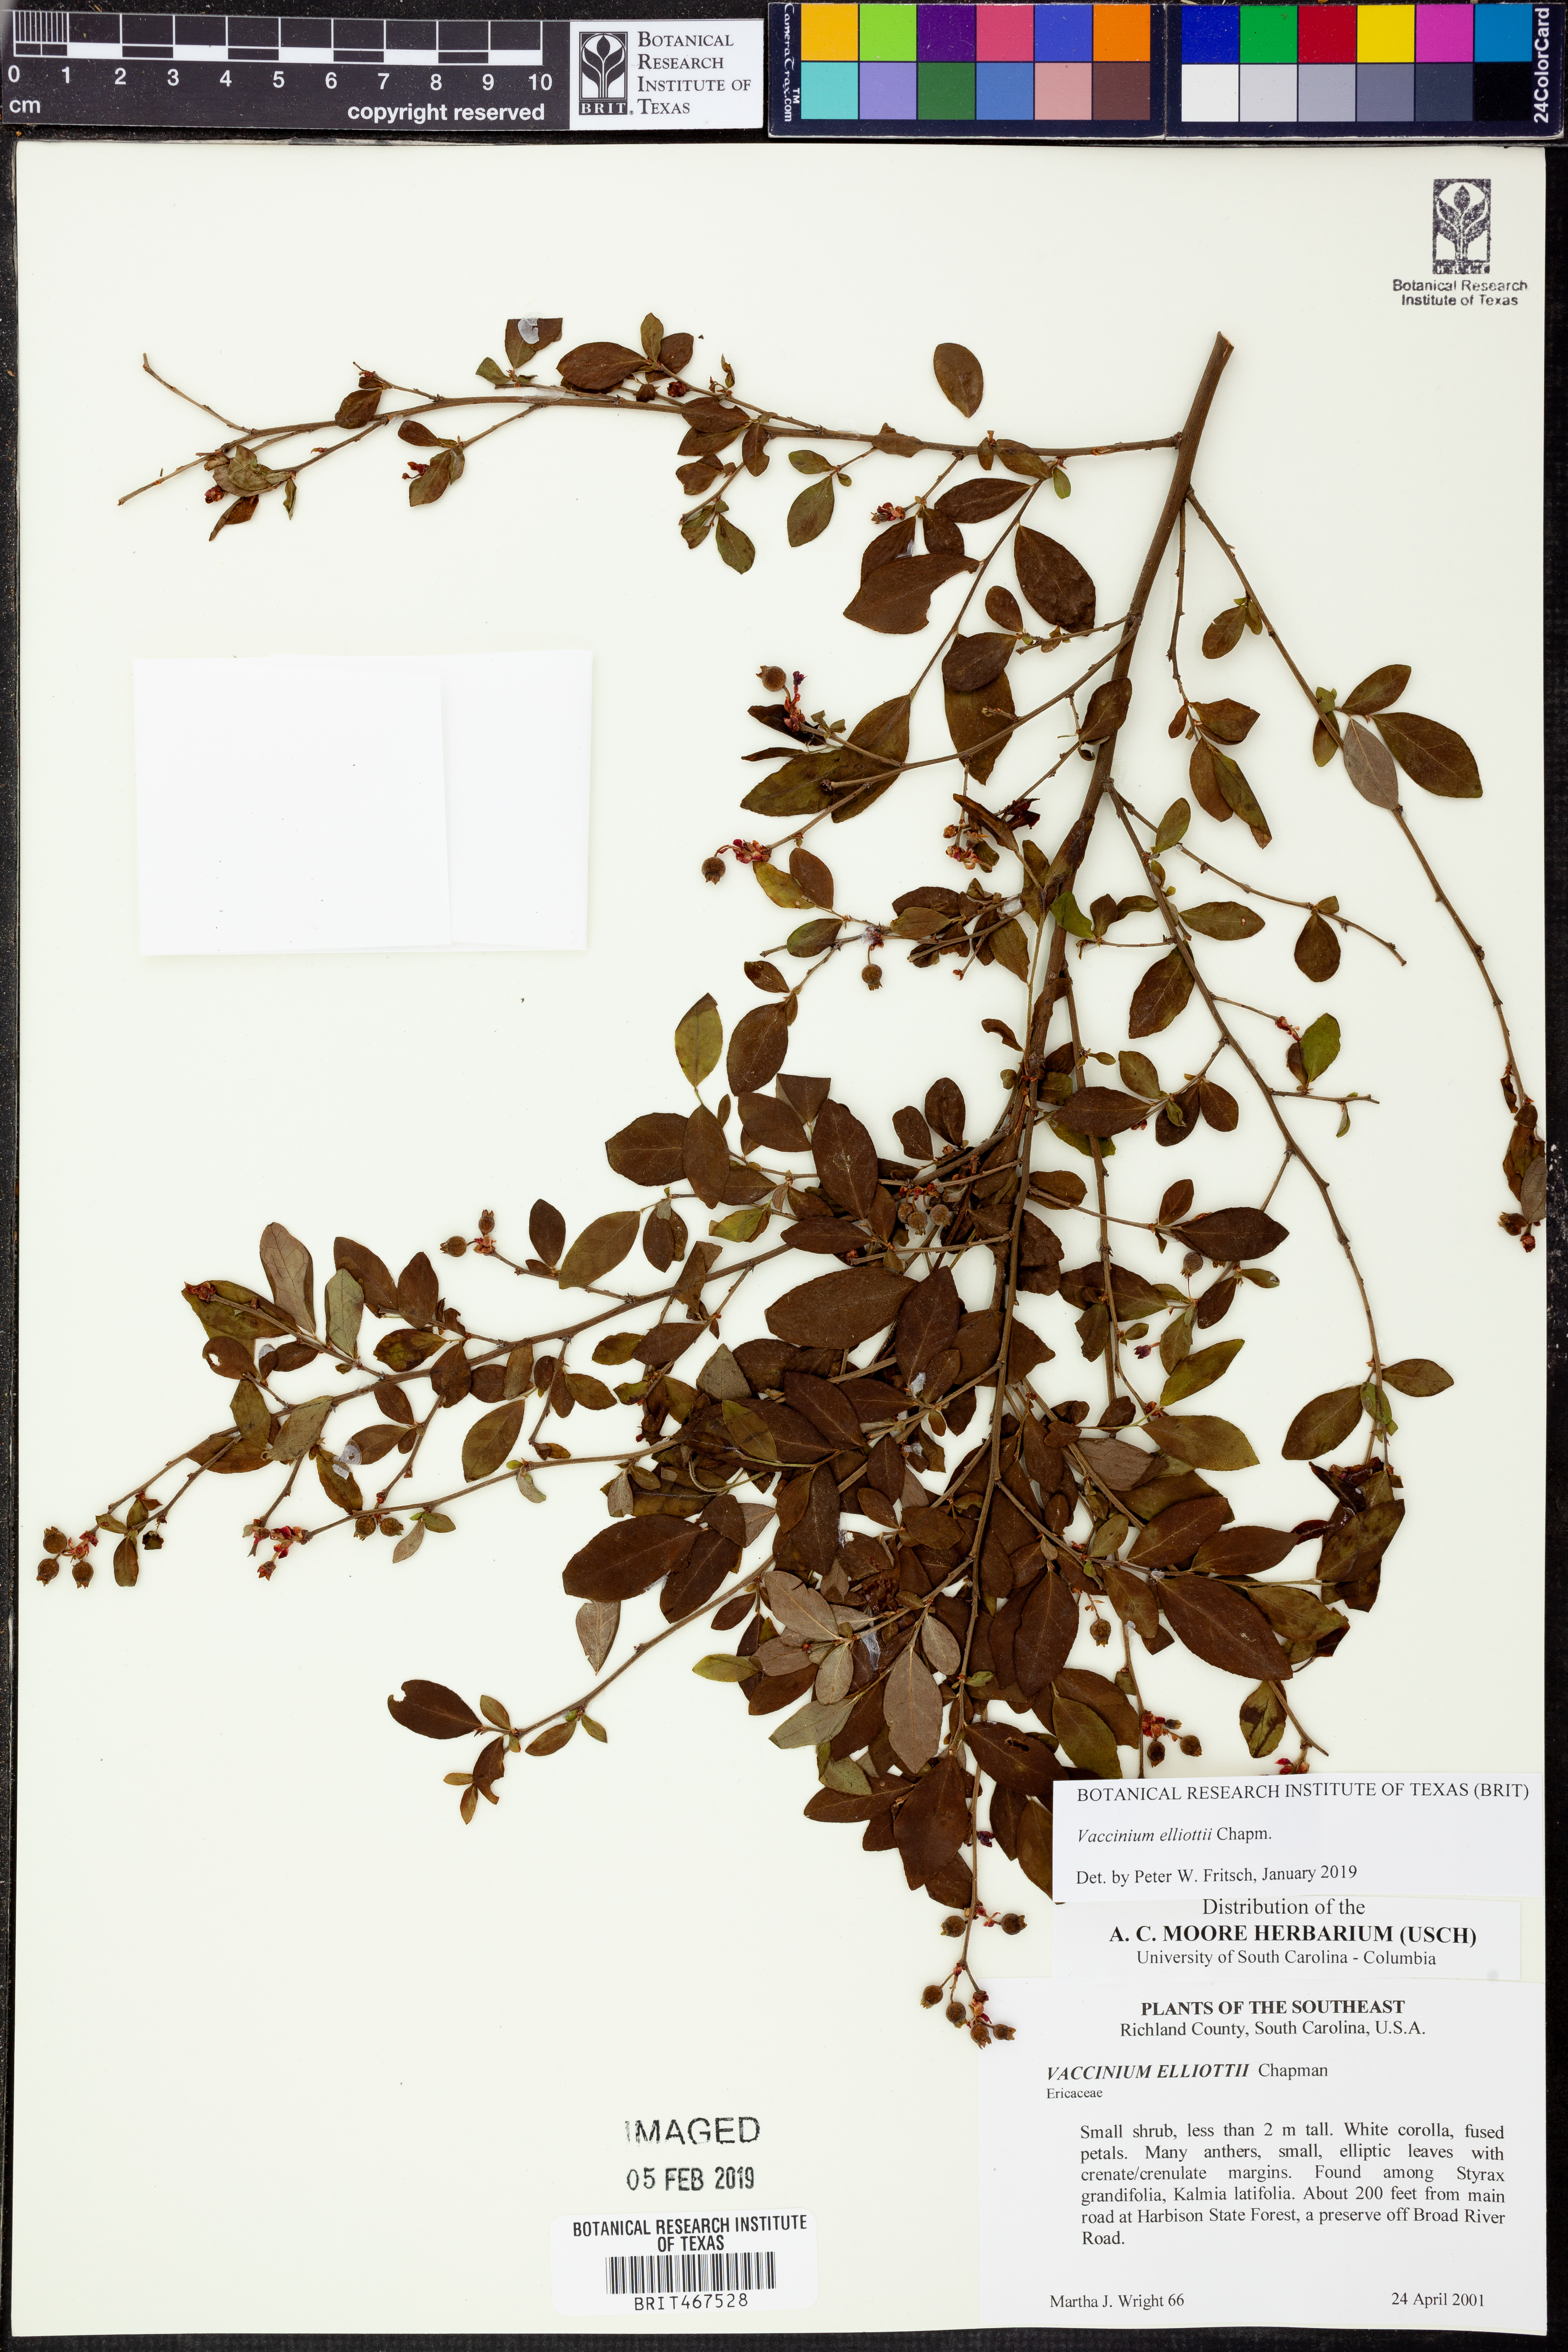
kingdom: Plantae
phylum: Tracheophyta
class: Magnoliopsida
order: Ericales
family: Ericaceae
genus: Vaccinium
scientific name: Vaccinium corymbosum
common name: Blueberry
